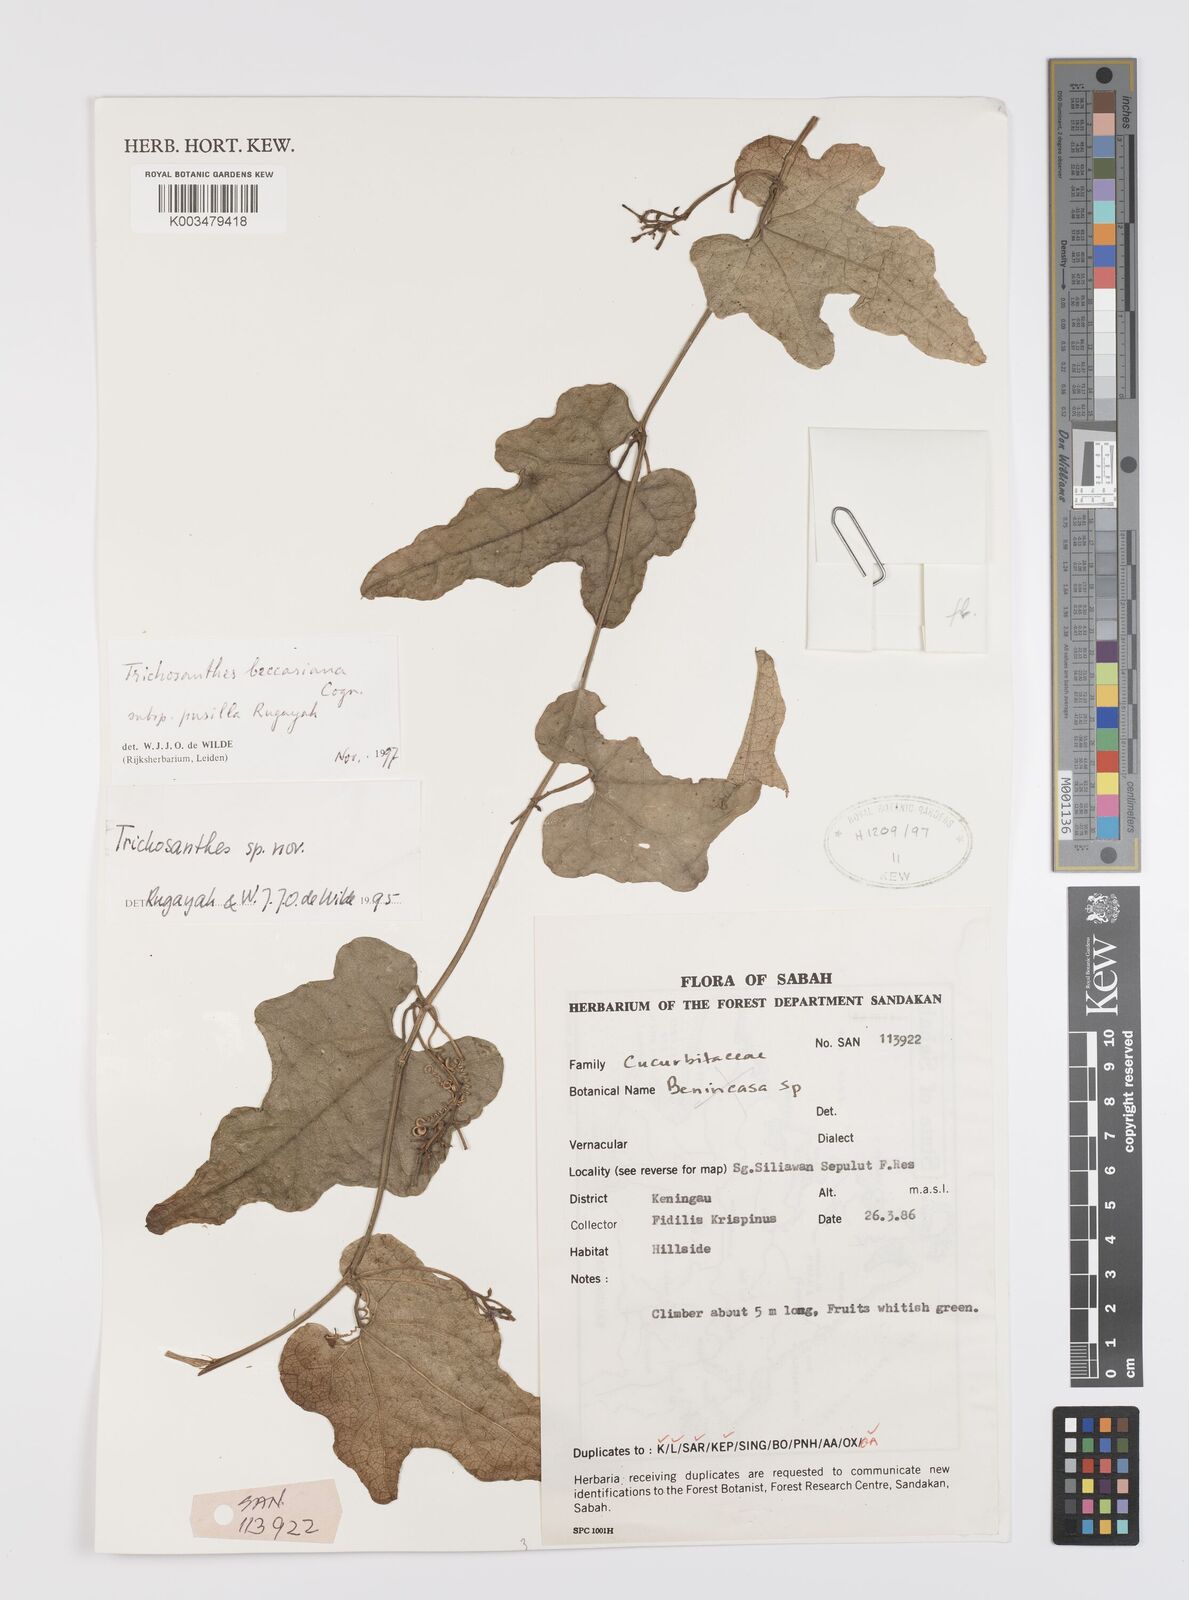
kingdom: Plantae
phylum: Tracheophyta
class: Magnoliopsida
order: Cucurbitales
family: Cucurbitaceae
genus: Trichosanthes
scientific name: Trichosanthes beccariana
